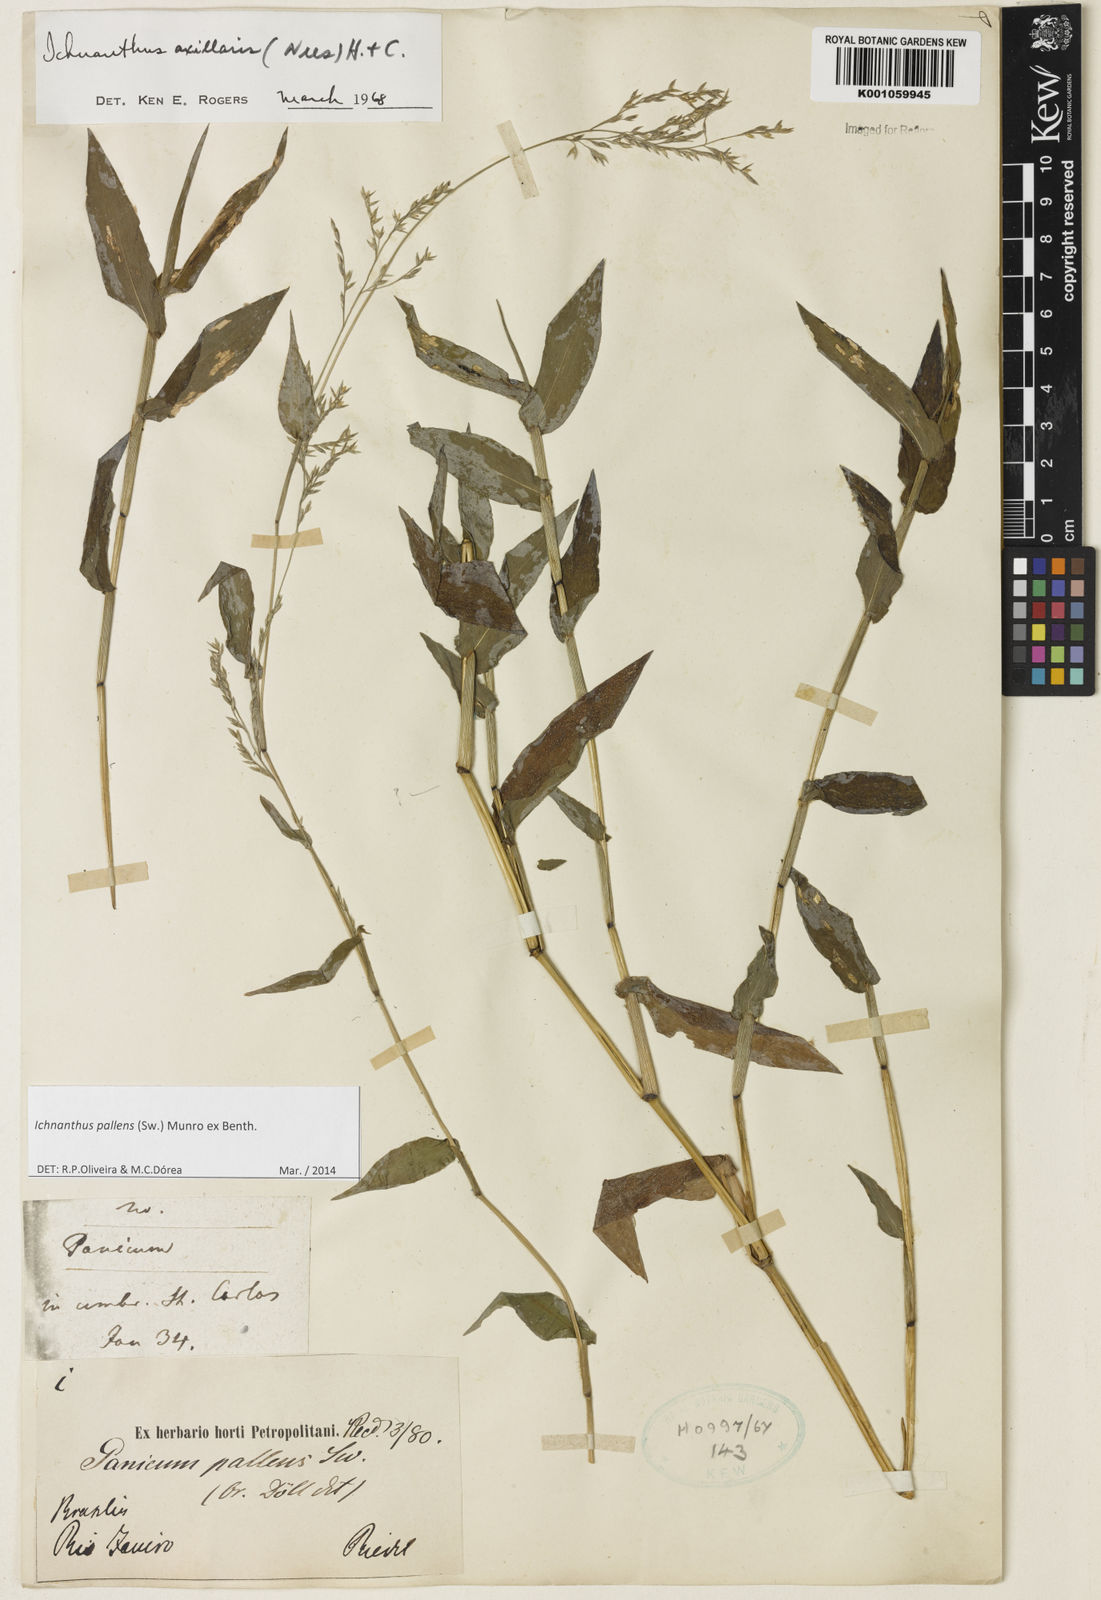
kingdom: Plantae
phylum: Tracheophyta
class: Liliopsida
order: Poales
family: Poaceae
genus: Ichnanthus
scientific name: Ichnanthus pallens
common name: Water grass
